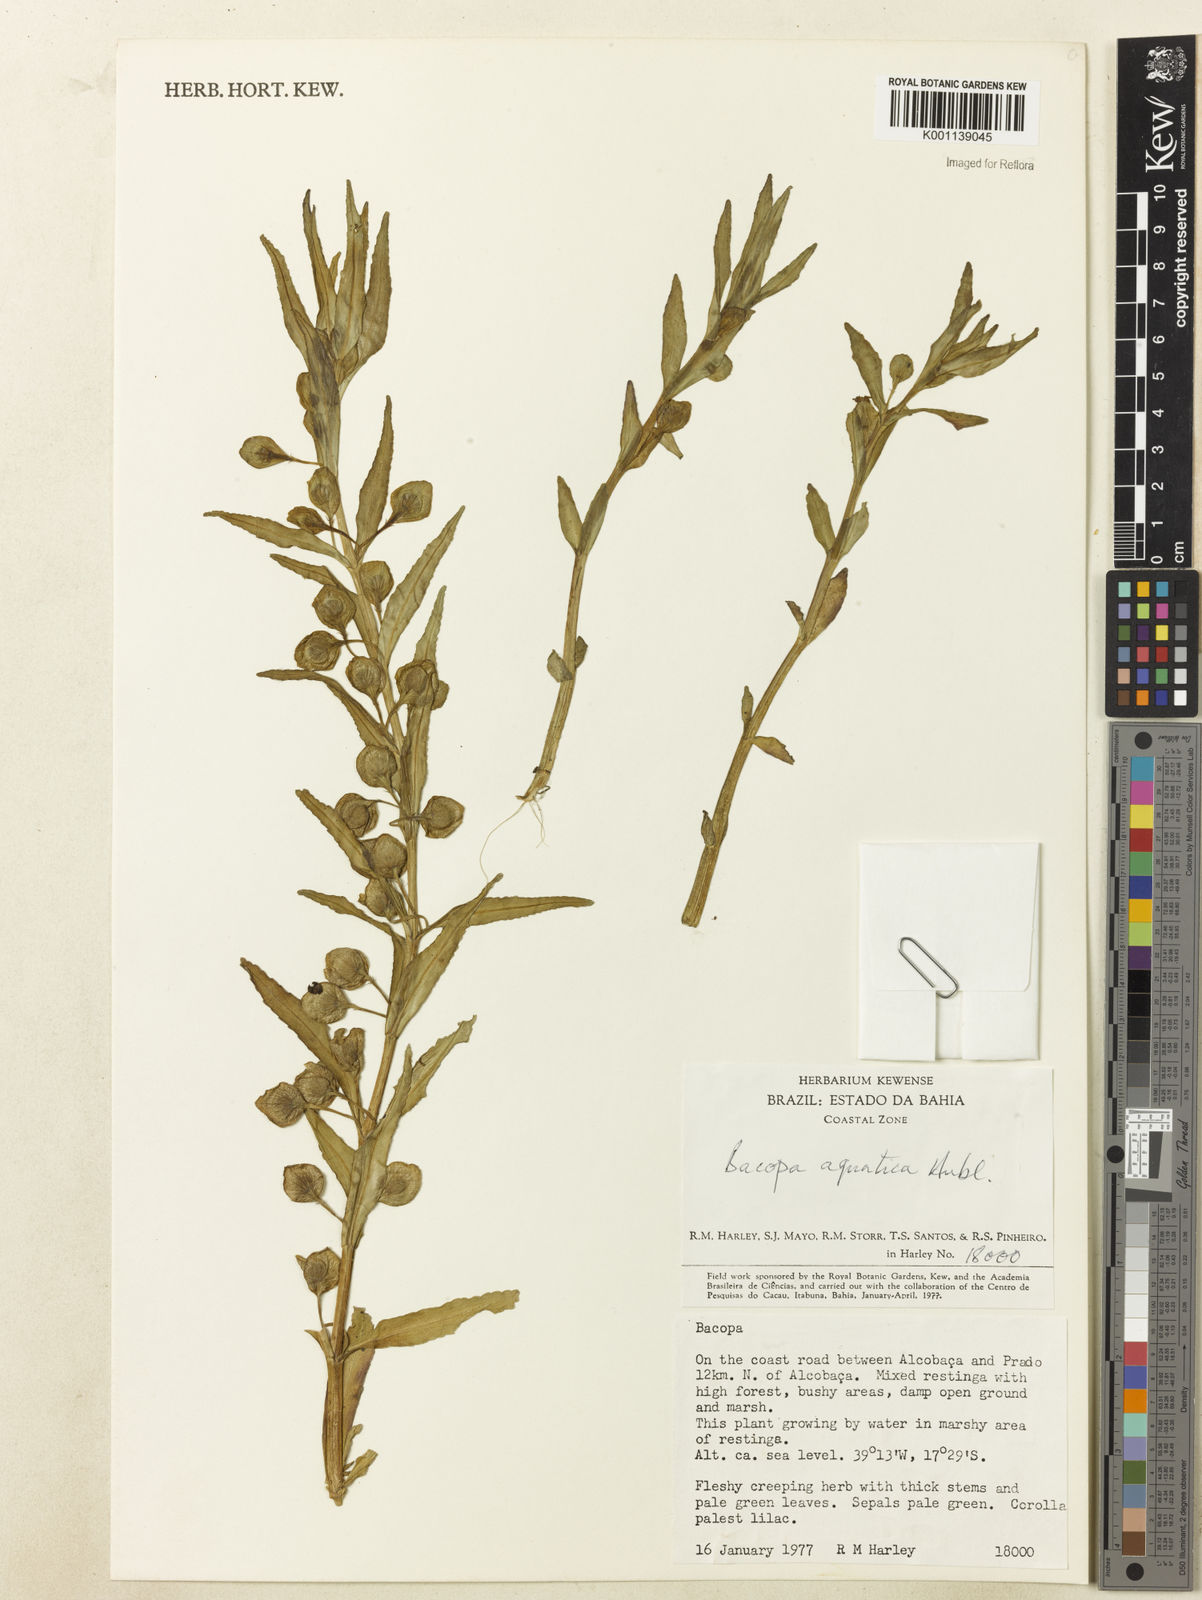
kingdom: Plantae
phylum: Tracheophyta
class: Magnoliopsida
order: Lamiales
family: Plantaginaceae
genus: Bacopa
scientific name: Bacopa aquatica
